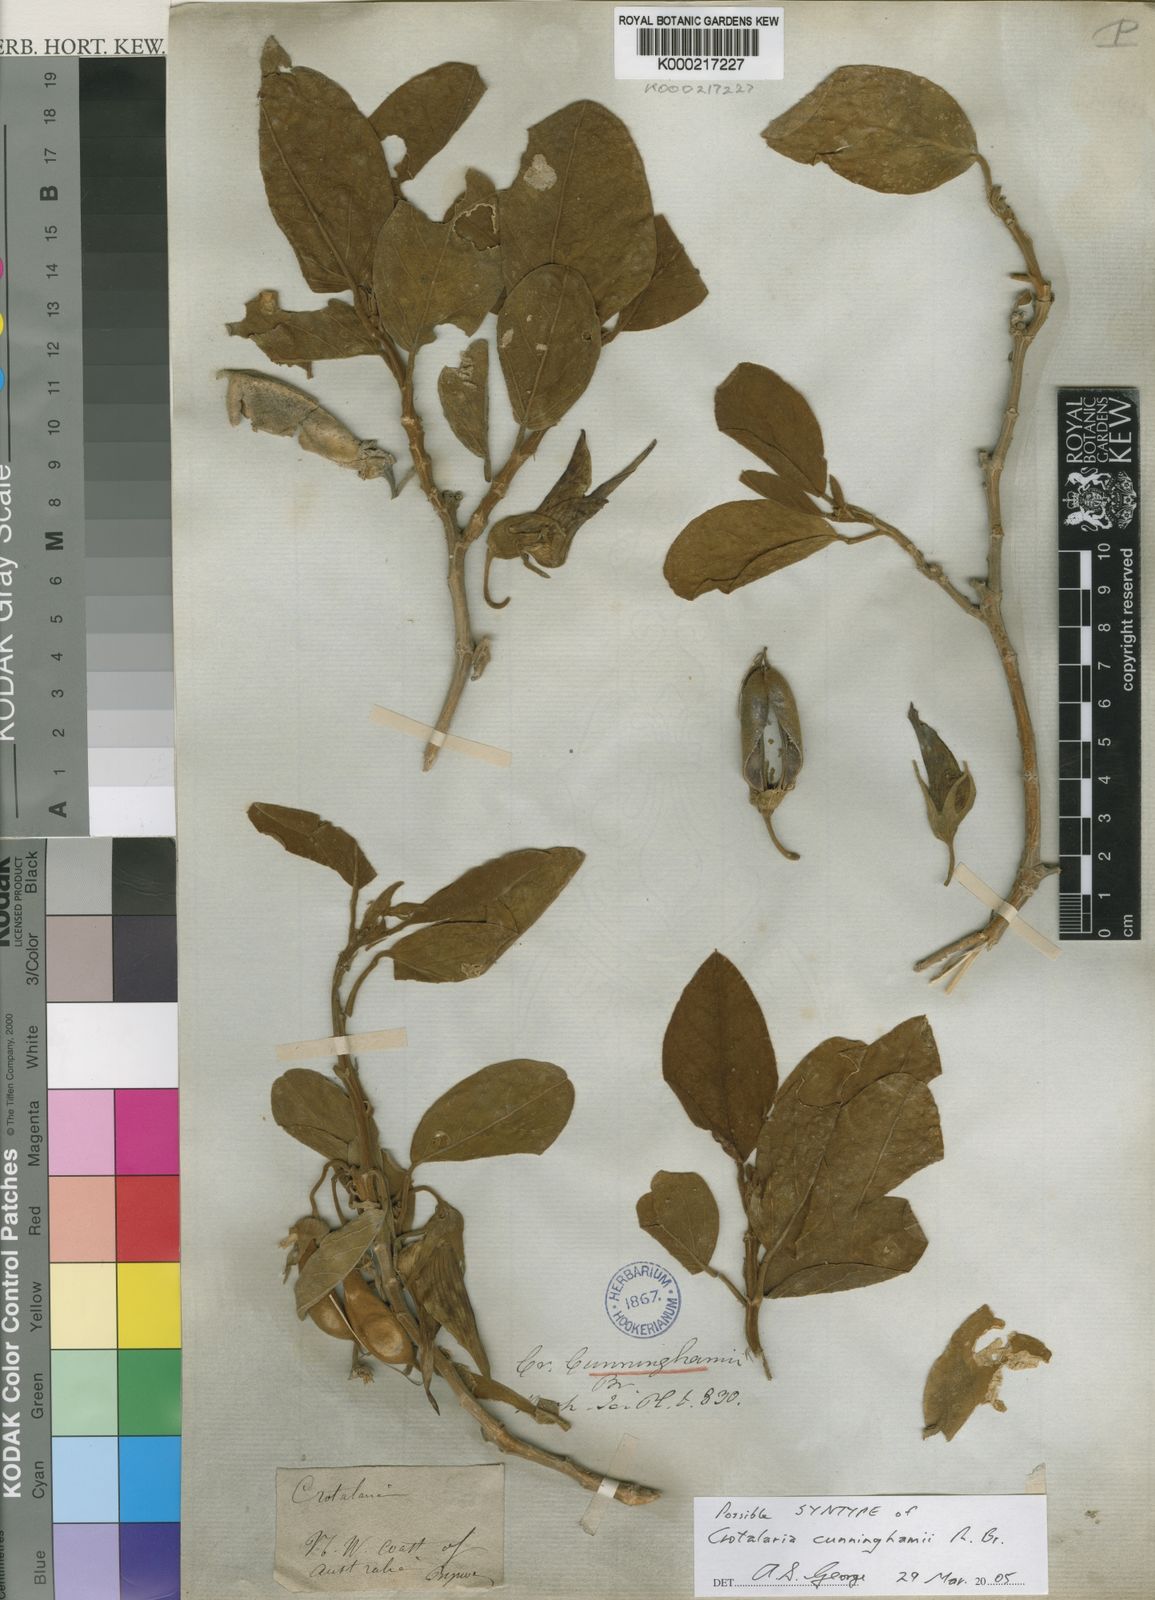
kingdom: Plantae
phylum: Tracheophyta
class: Magnoliopsida
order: Fabales
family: Fabaceae
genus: Crotalaria
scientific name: Crotalaria cunninghamii
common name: Birdflower rattlepod
